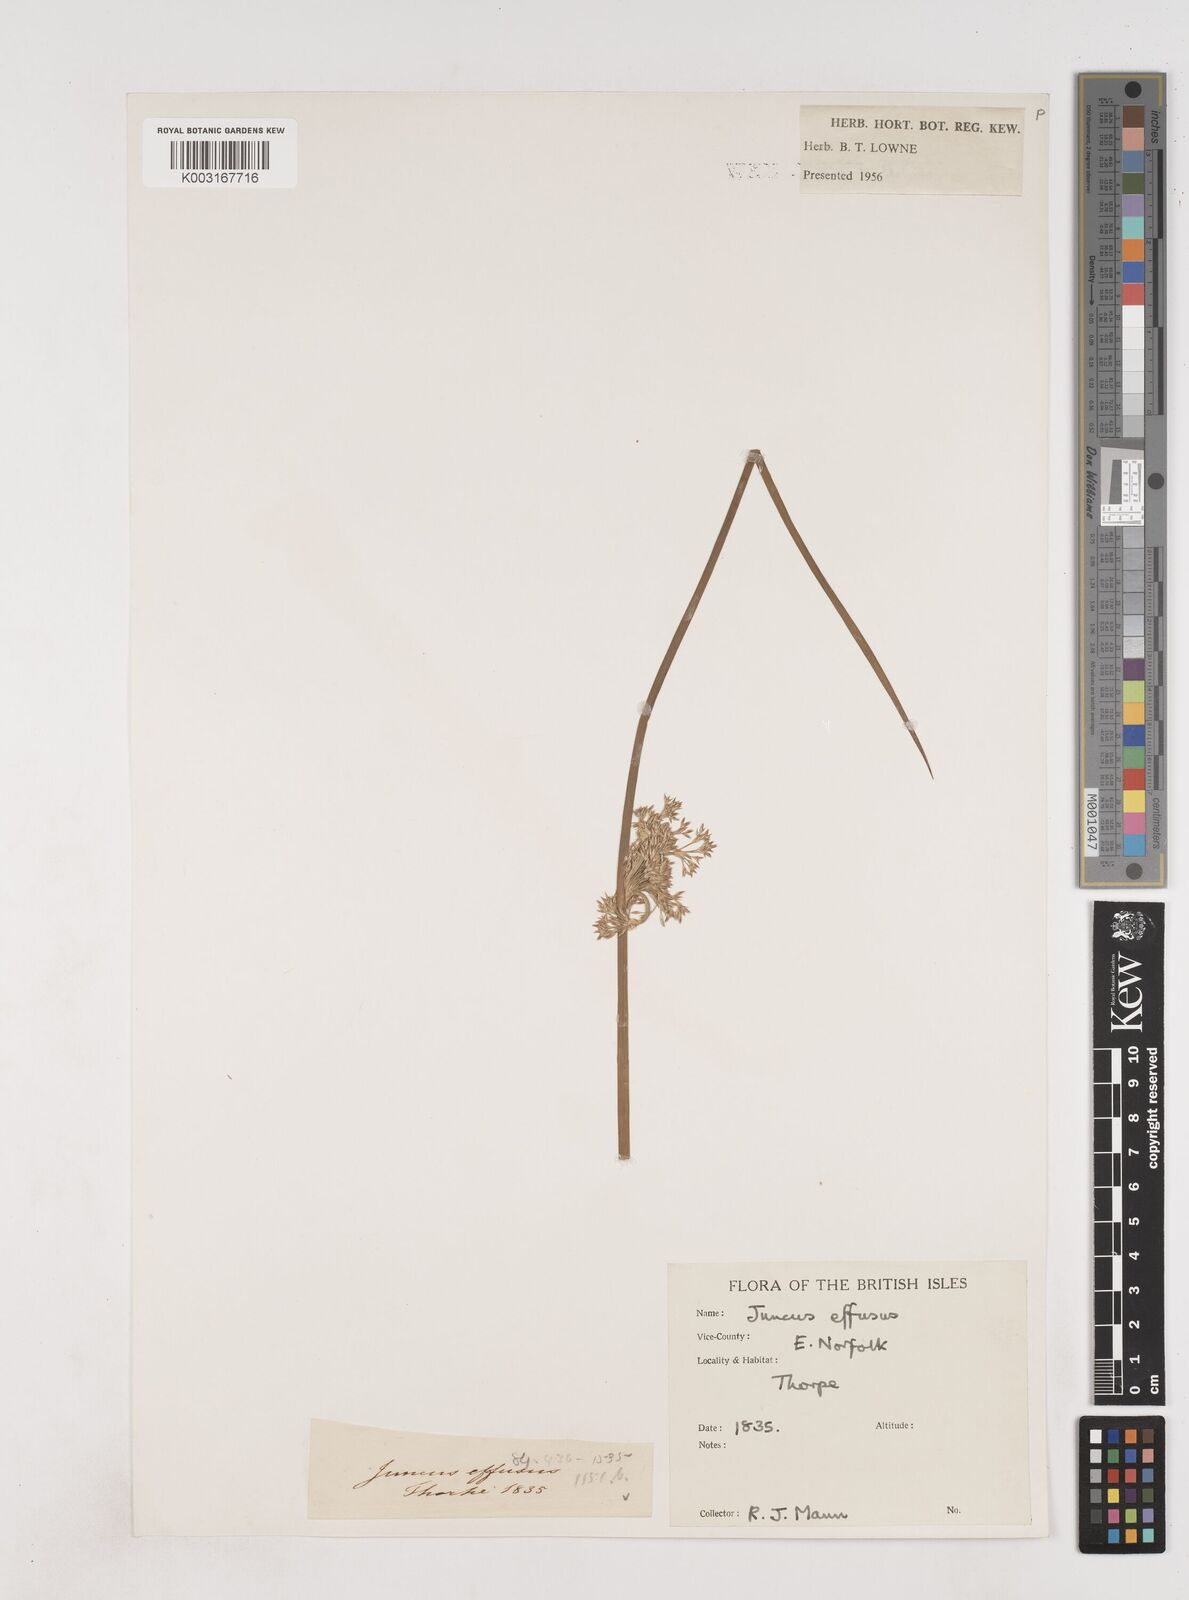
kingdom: Plantae
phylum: Tracheophyta
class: Liliopsida
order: Poales
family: Juncaceae
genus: Juncus
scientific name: Juncus effusus
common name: Soft rush
